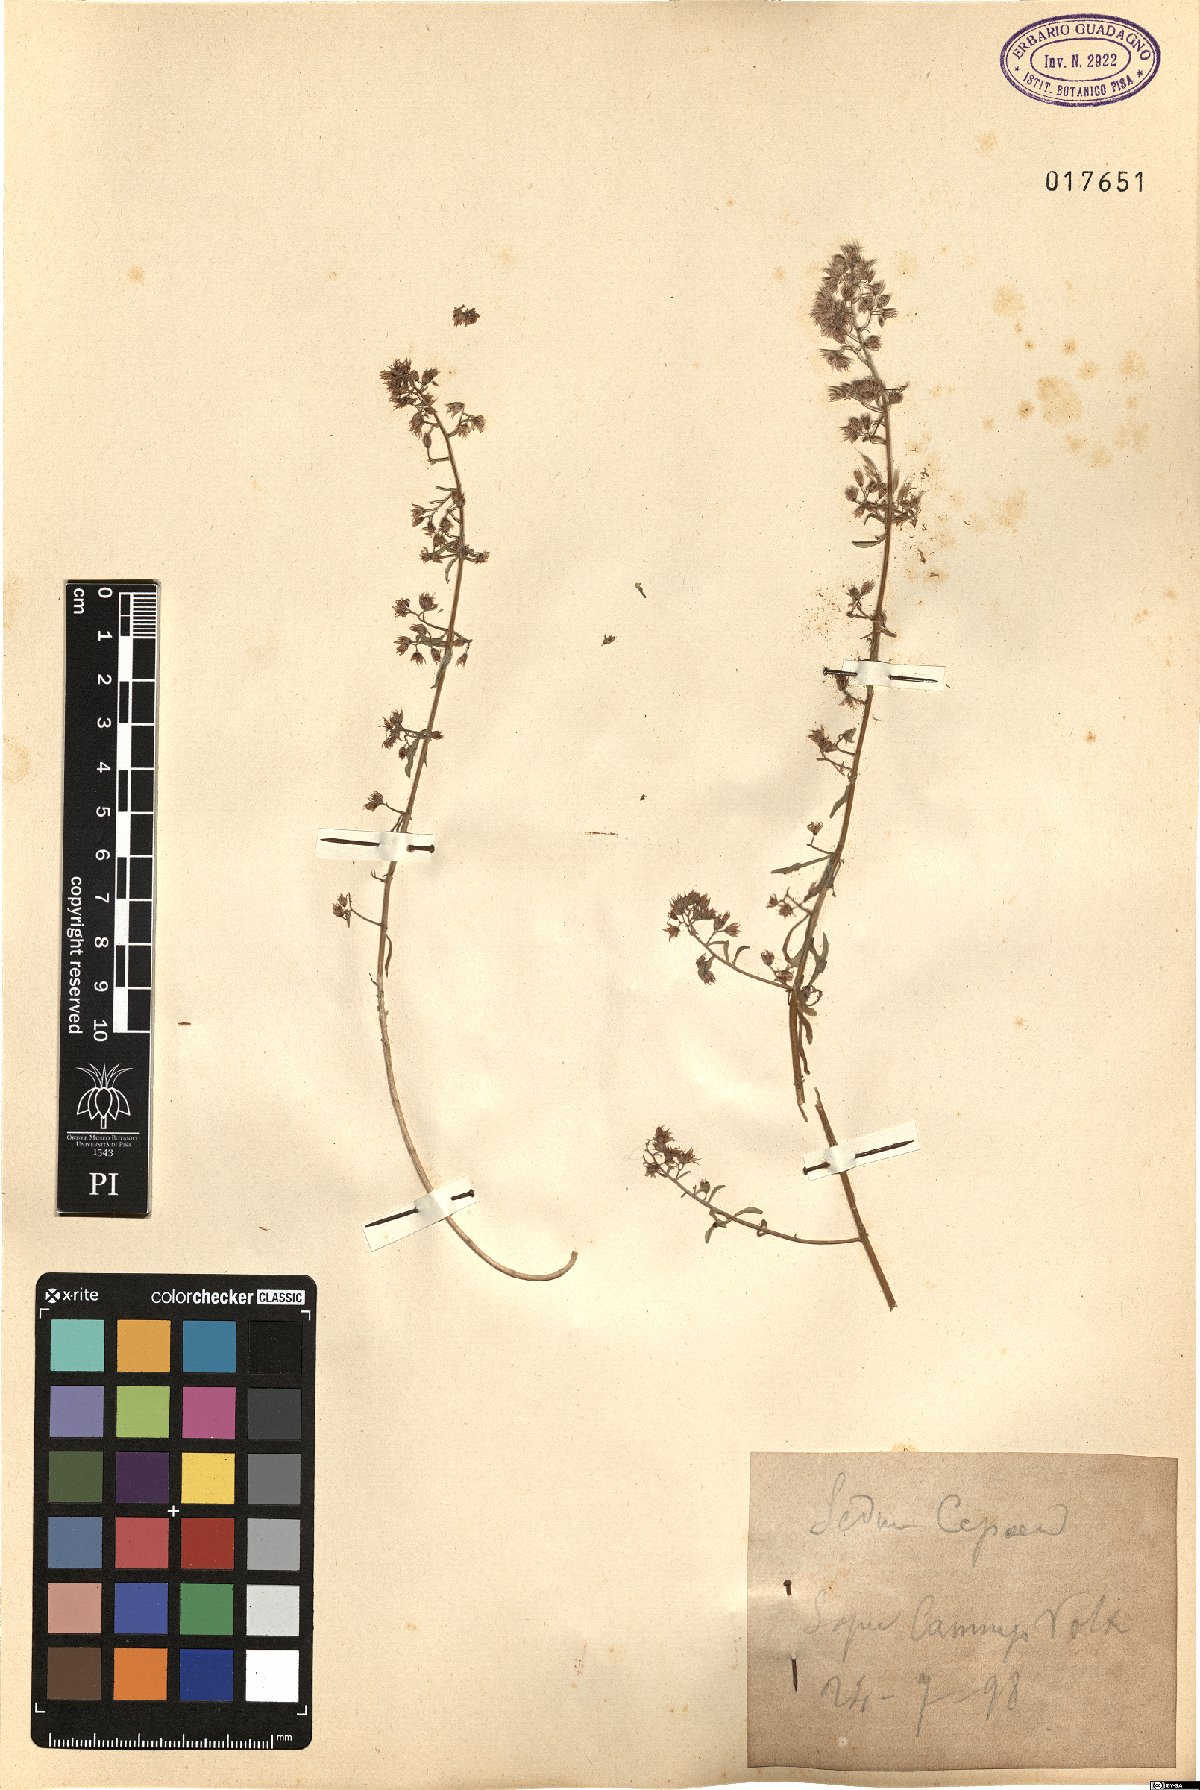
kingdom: Plantae
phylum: Tracheophyta
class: Magnoliopsida
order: Saxifragales
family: Crassulaceae
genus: Sedum
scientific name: Sedum cepaea
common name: Pink stonecrop
